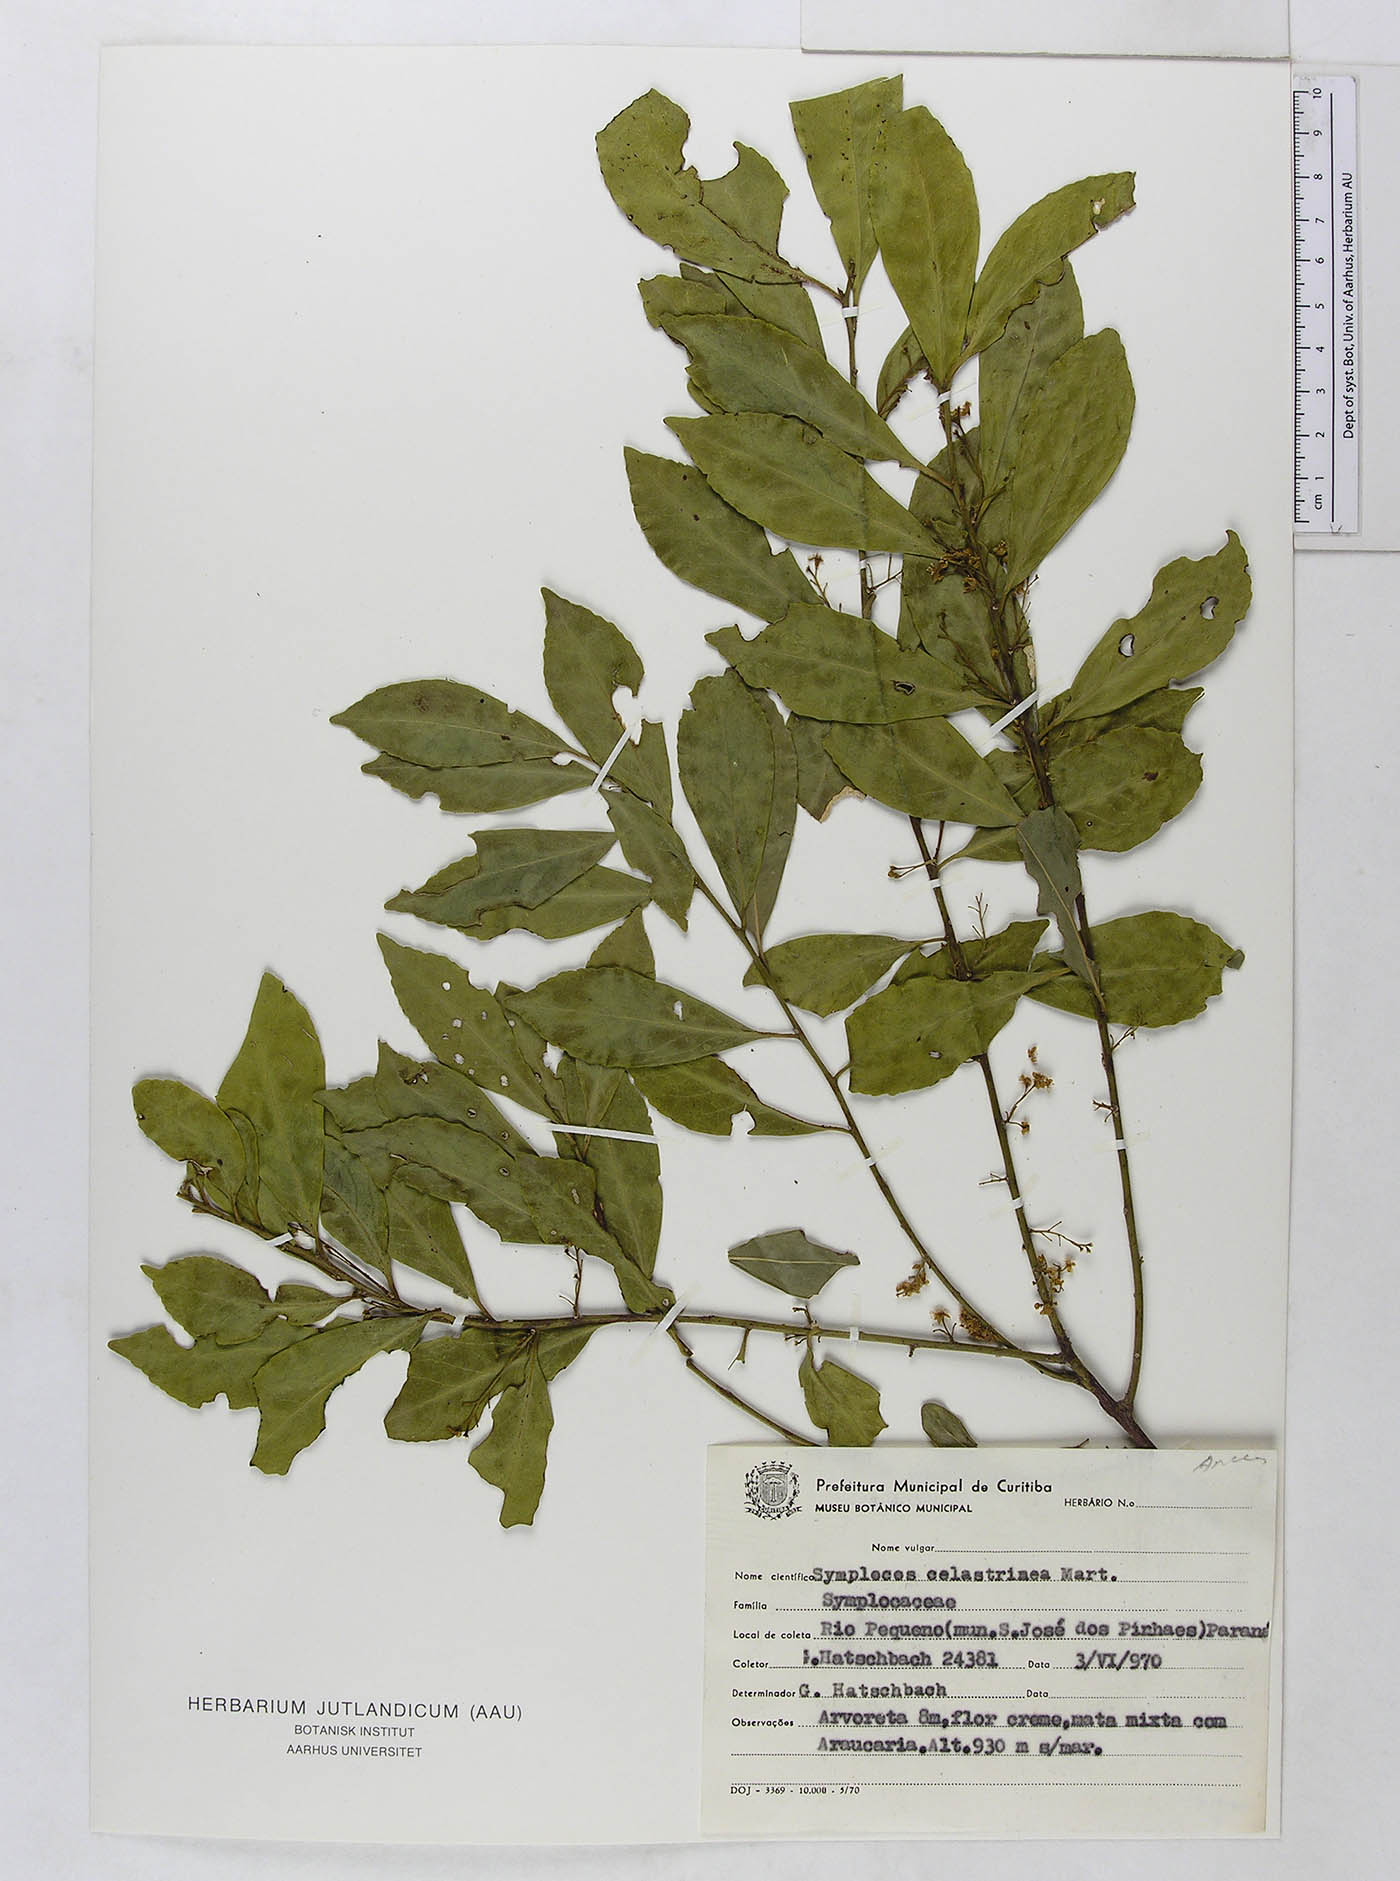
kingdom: Plantae
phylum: Tracheophyta
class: Magnoliopsida
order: Ericales
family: Symplocaceae
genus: Symplocos
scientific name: Symplocos celastrinea
